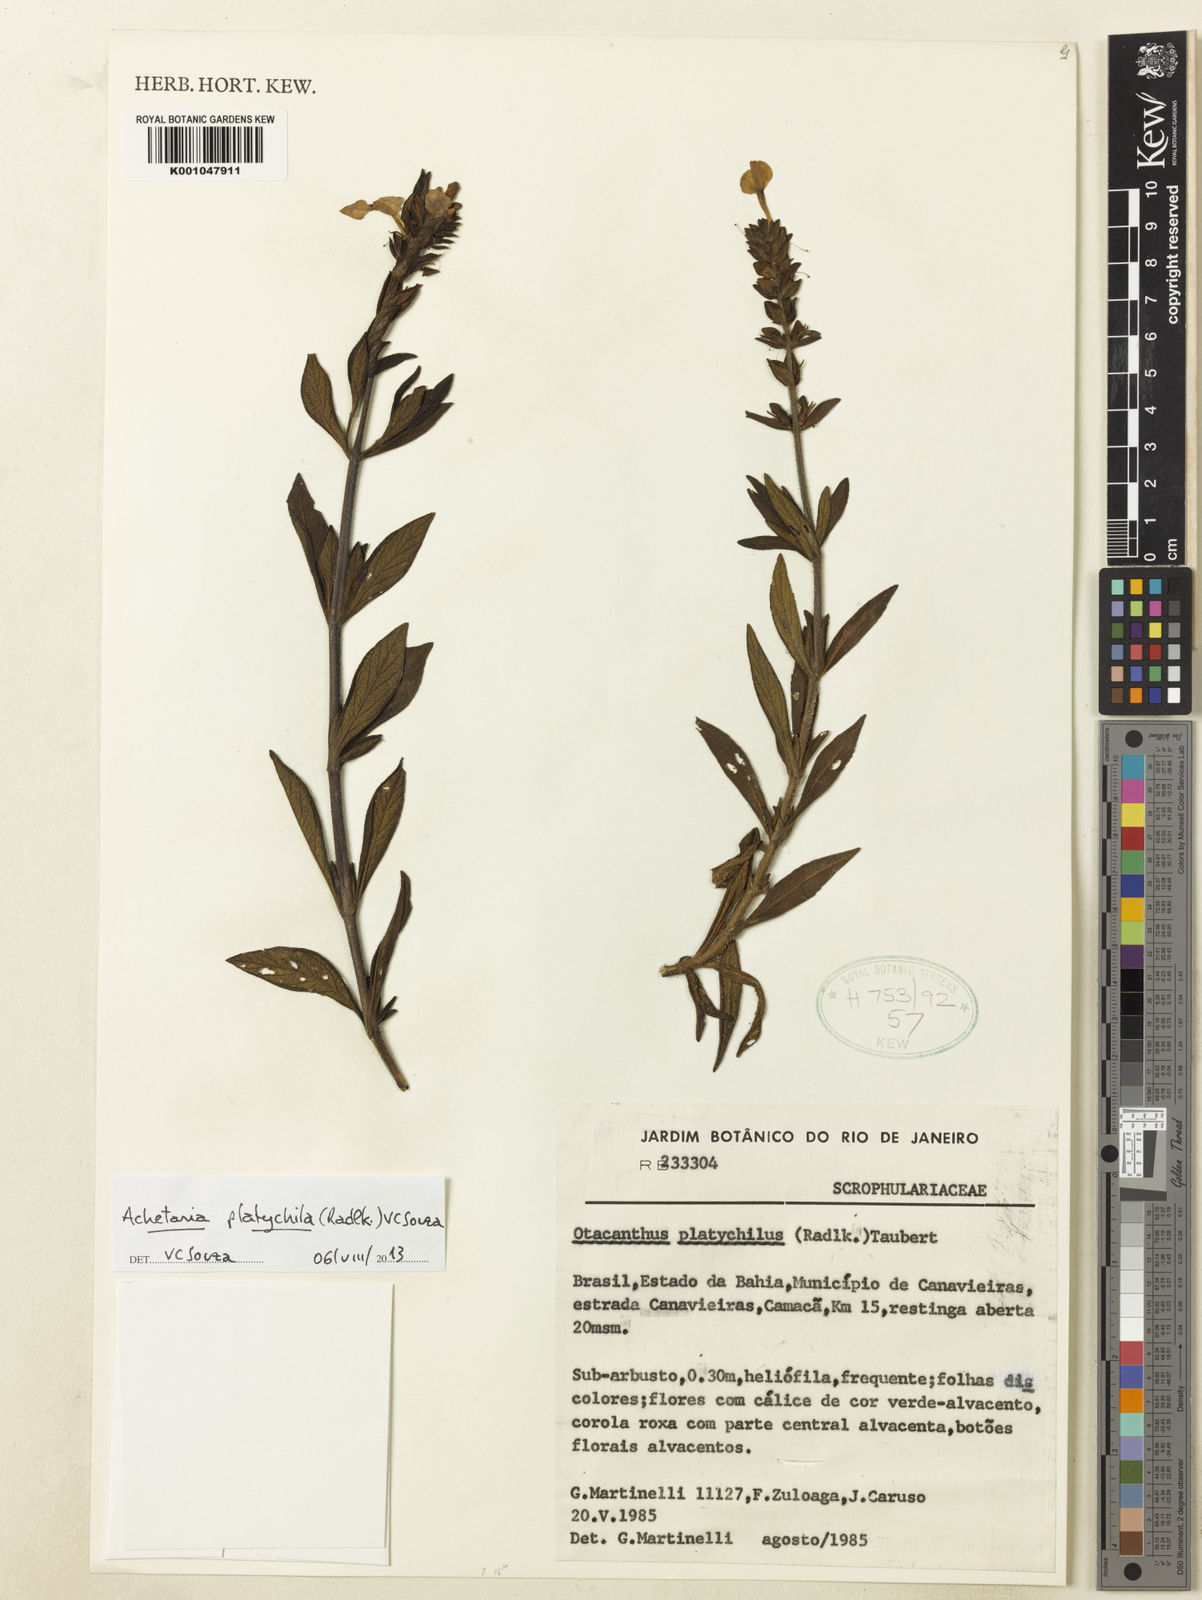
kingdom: Plantae
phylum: Tracheophyta
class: Magnoliopsida
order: Lamiales
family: Plantaginaceae
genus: Matourea
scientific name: Matourea platychila
